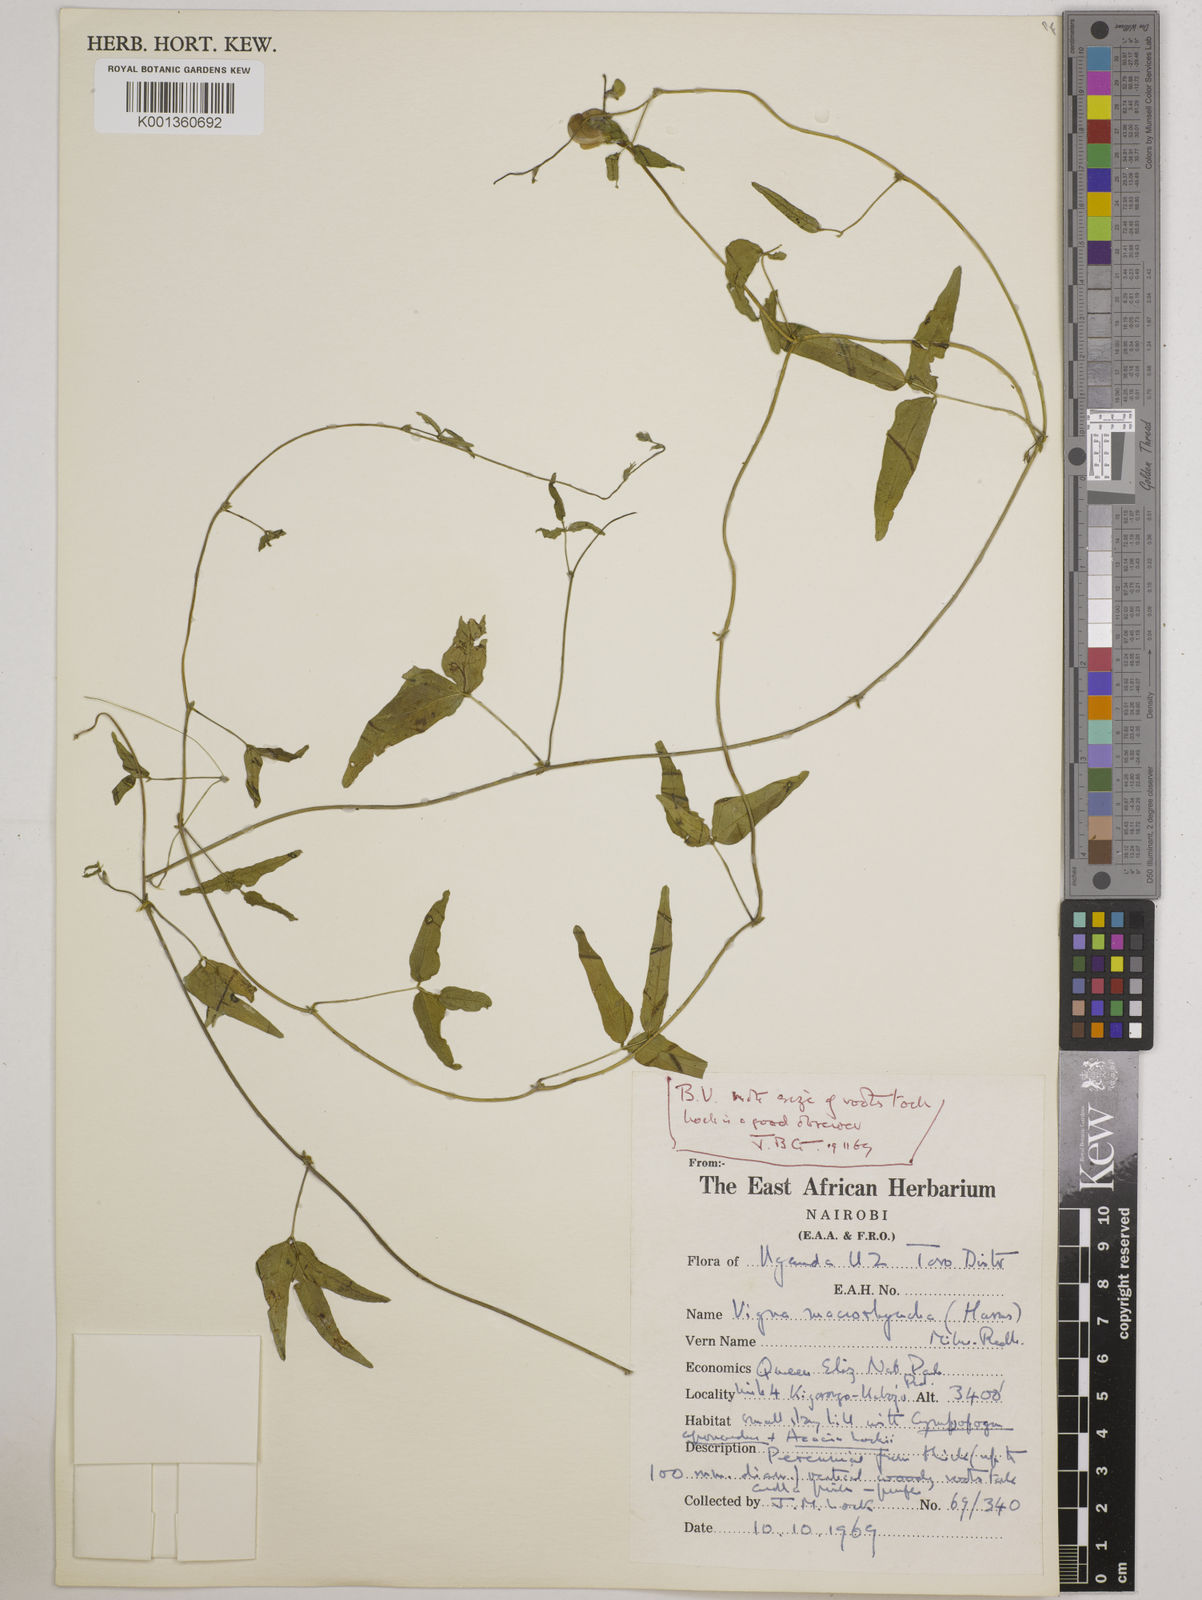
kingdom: Plantae
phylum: Tracheophyta
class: Magnoliopsida
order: Fabales
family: Fabaceae
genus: Wajira
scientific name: Wajira grahamiana
